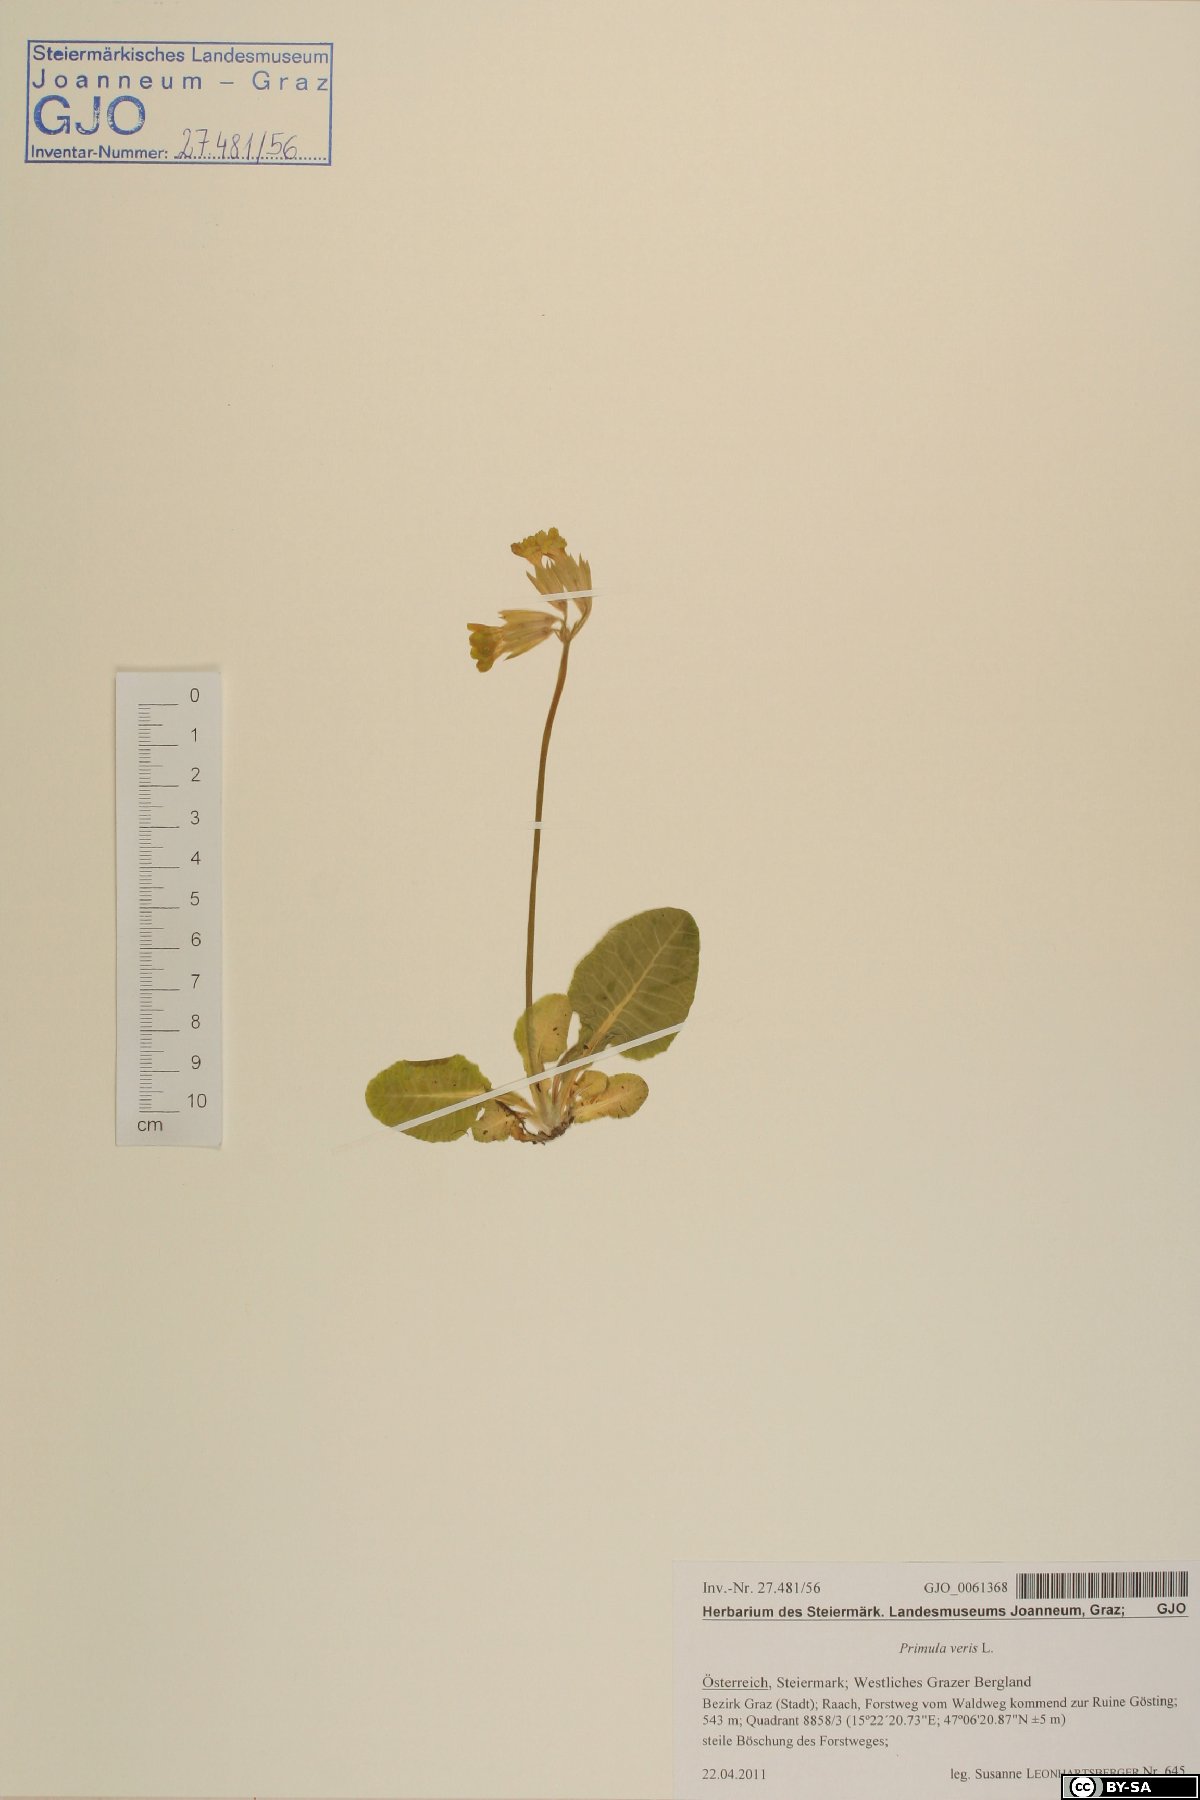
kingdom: Plantae
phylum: Tracheophyta
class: Magnoliopsida
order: Ericales
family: Primulaceae
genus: Primula
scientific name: Primula veris
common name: Cowslip
